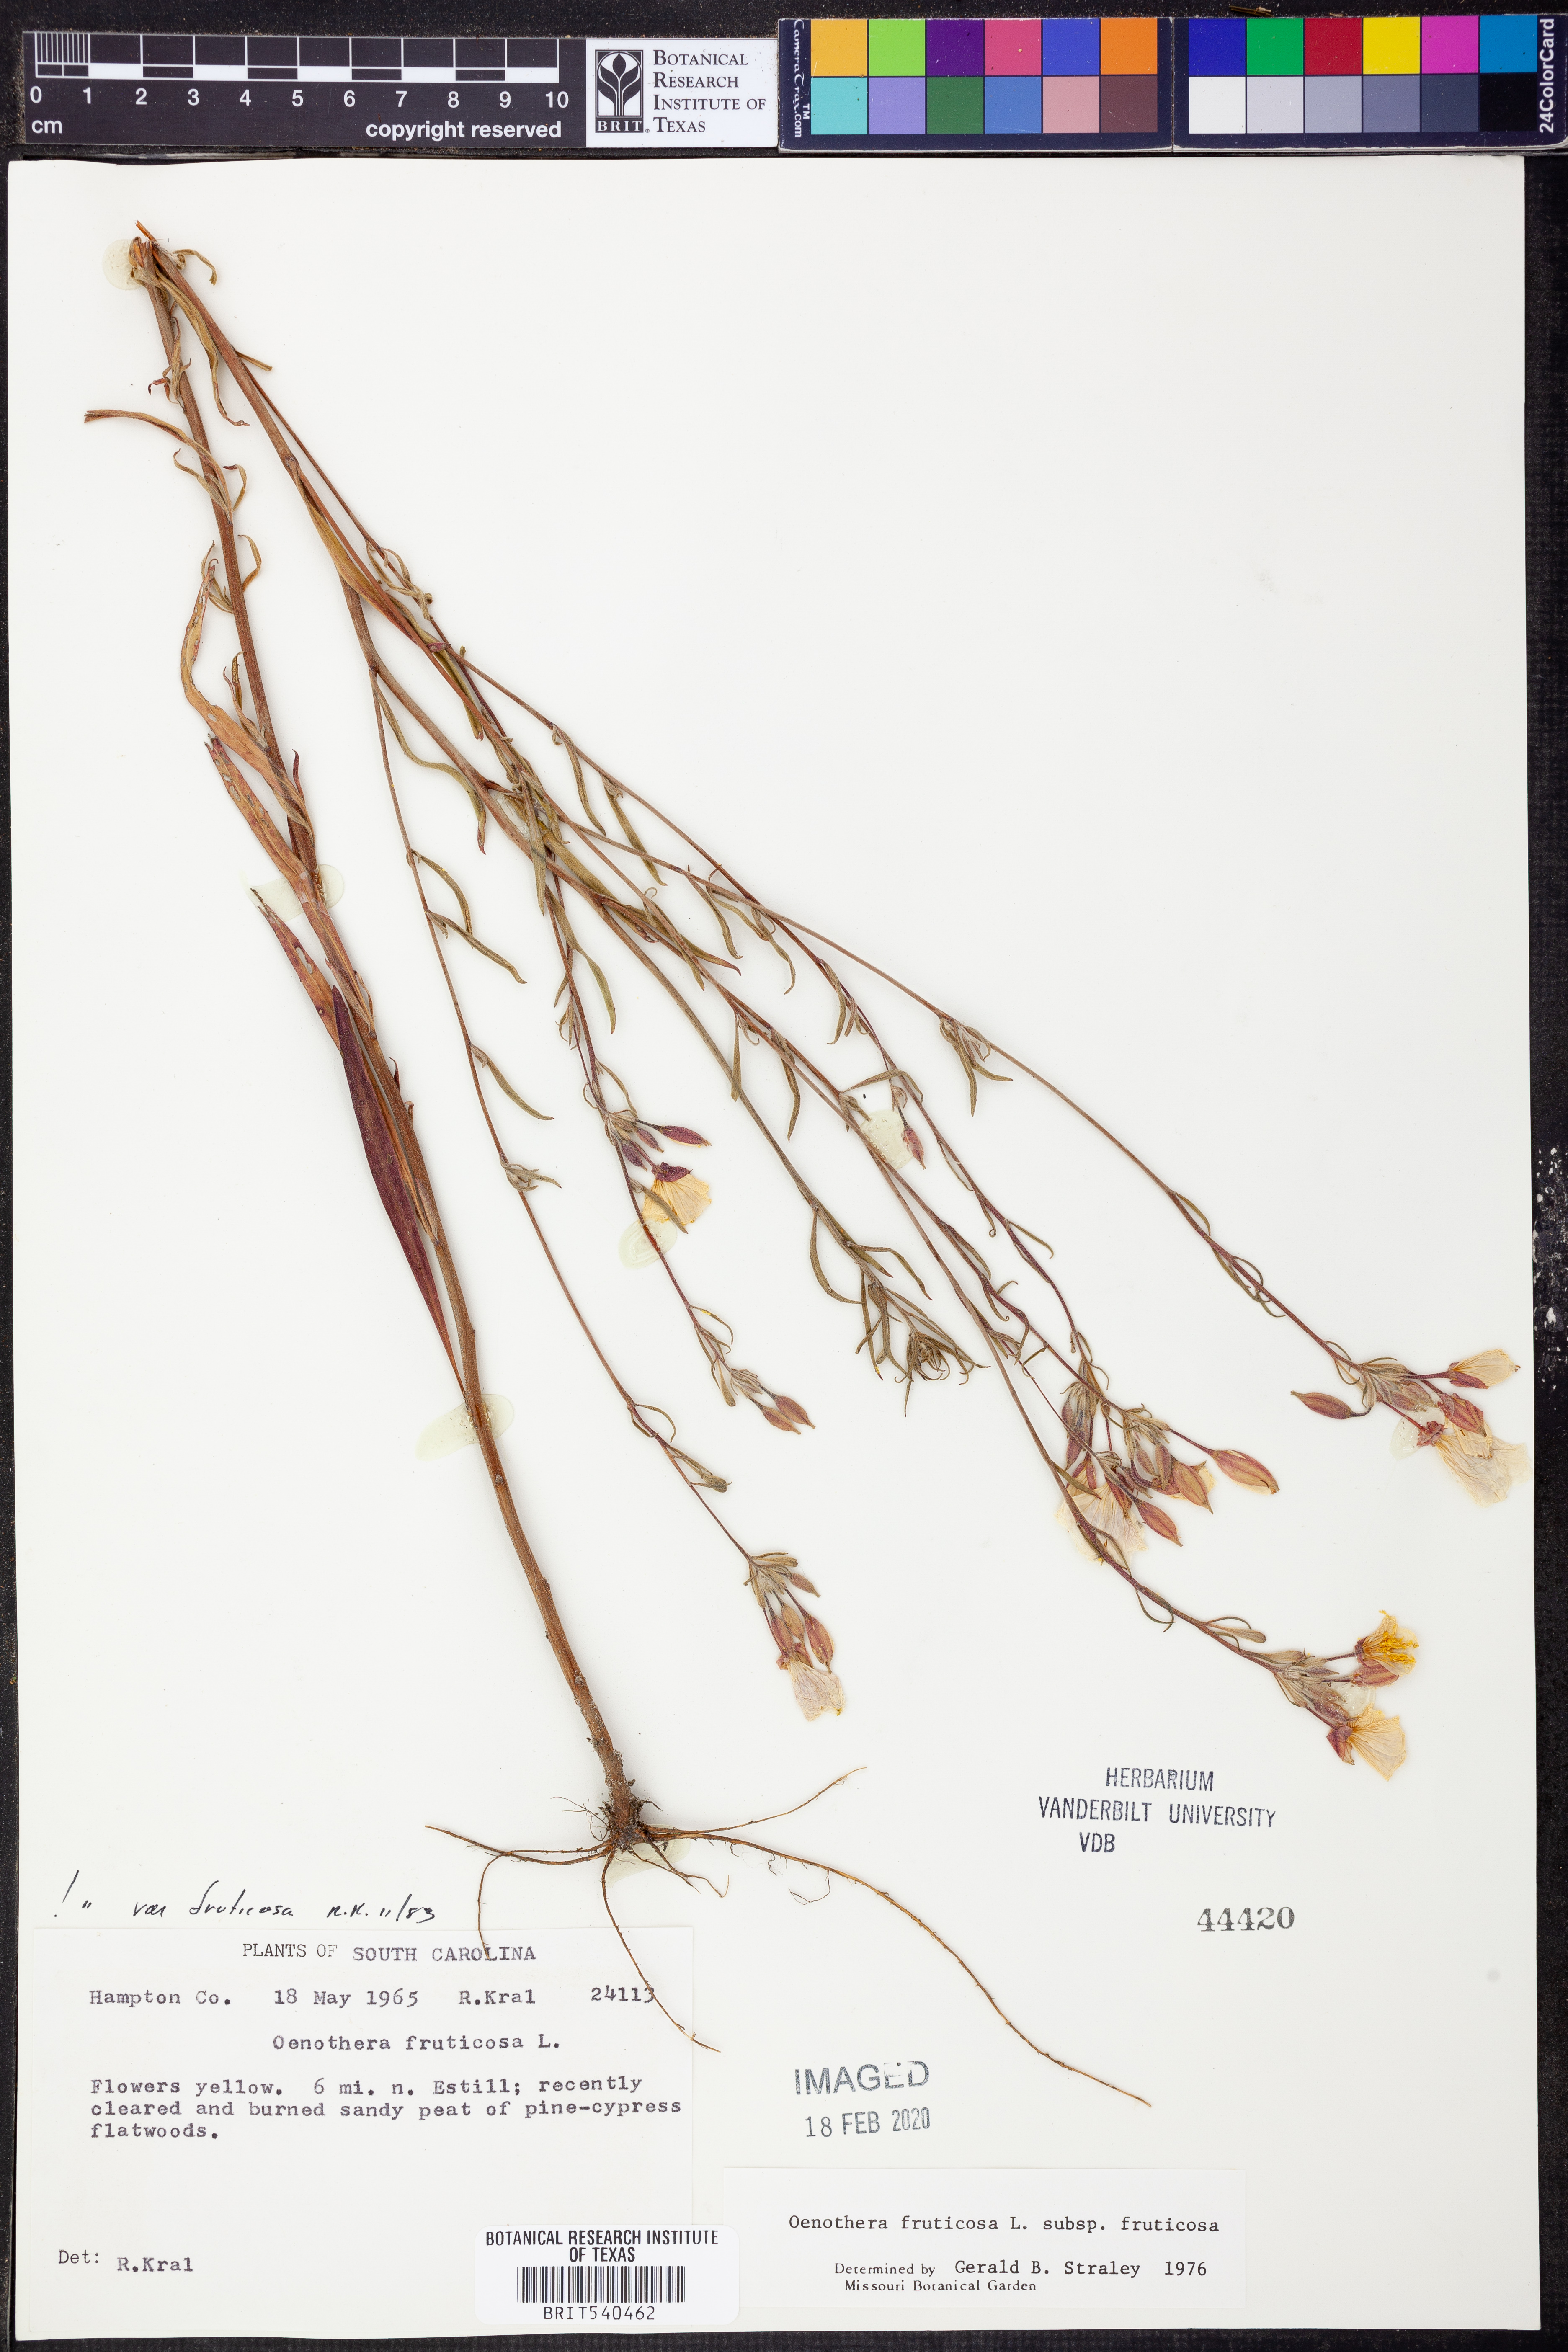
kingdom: Plantae
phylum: Tracheophyta
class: Magnoliopsida
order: Myrtales
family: Onagraceae
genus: Oenothera
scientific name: Oenothera fruticosa
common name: Southern sundrops
